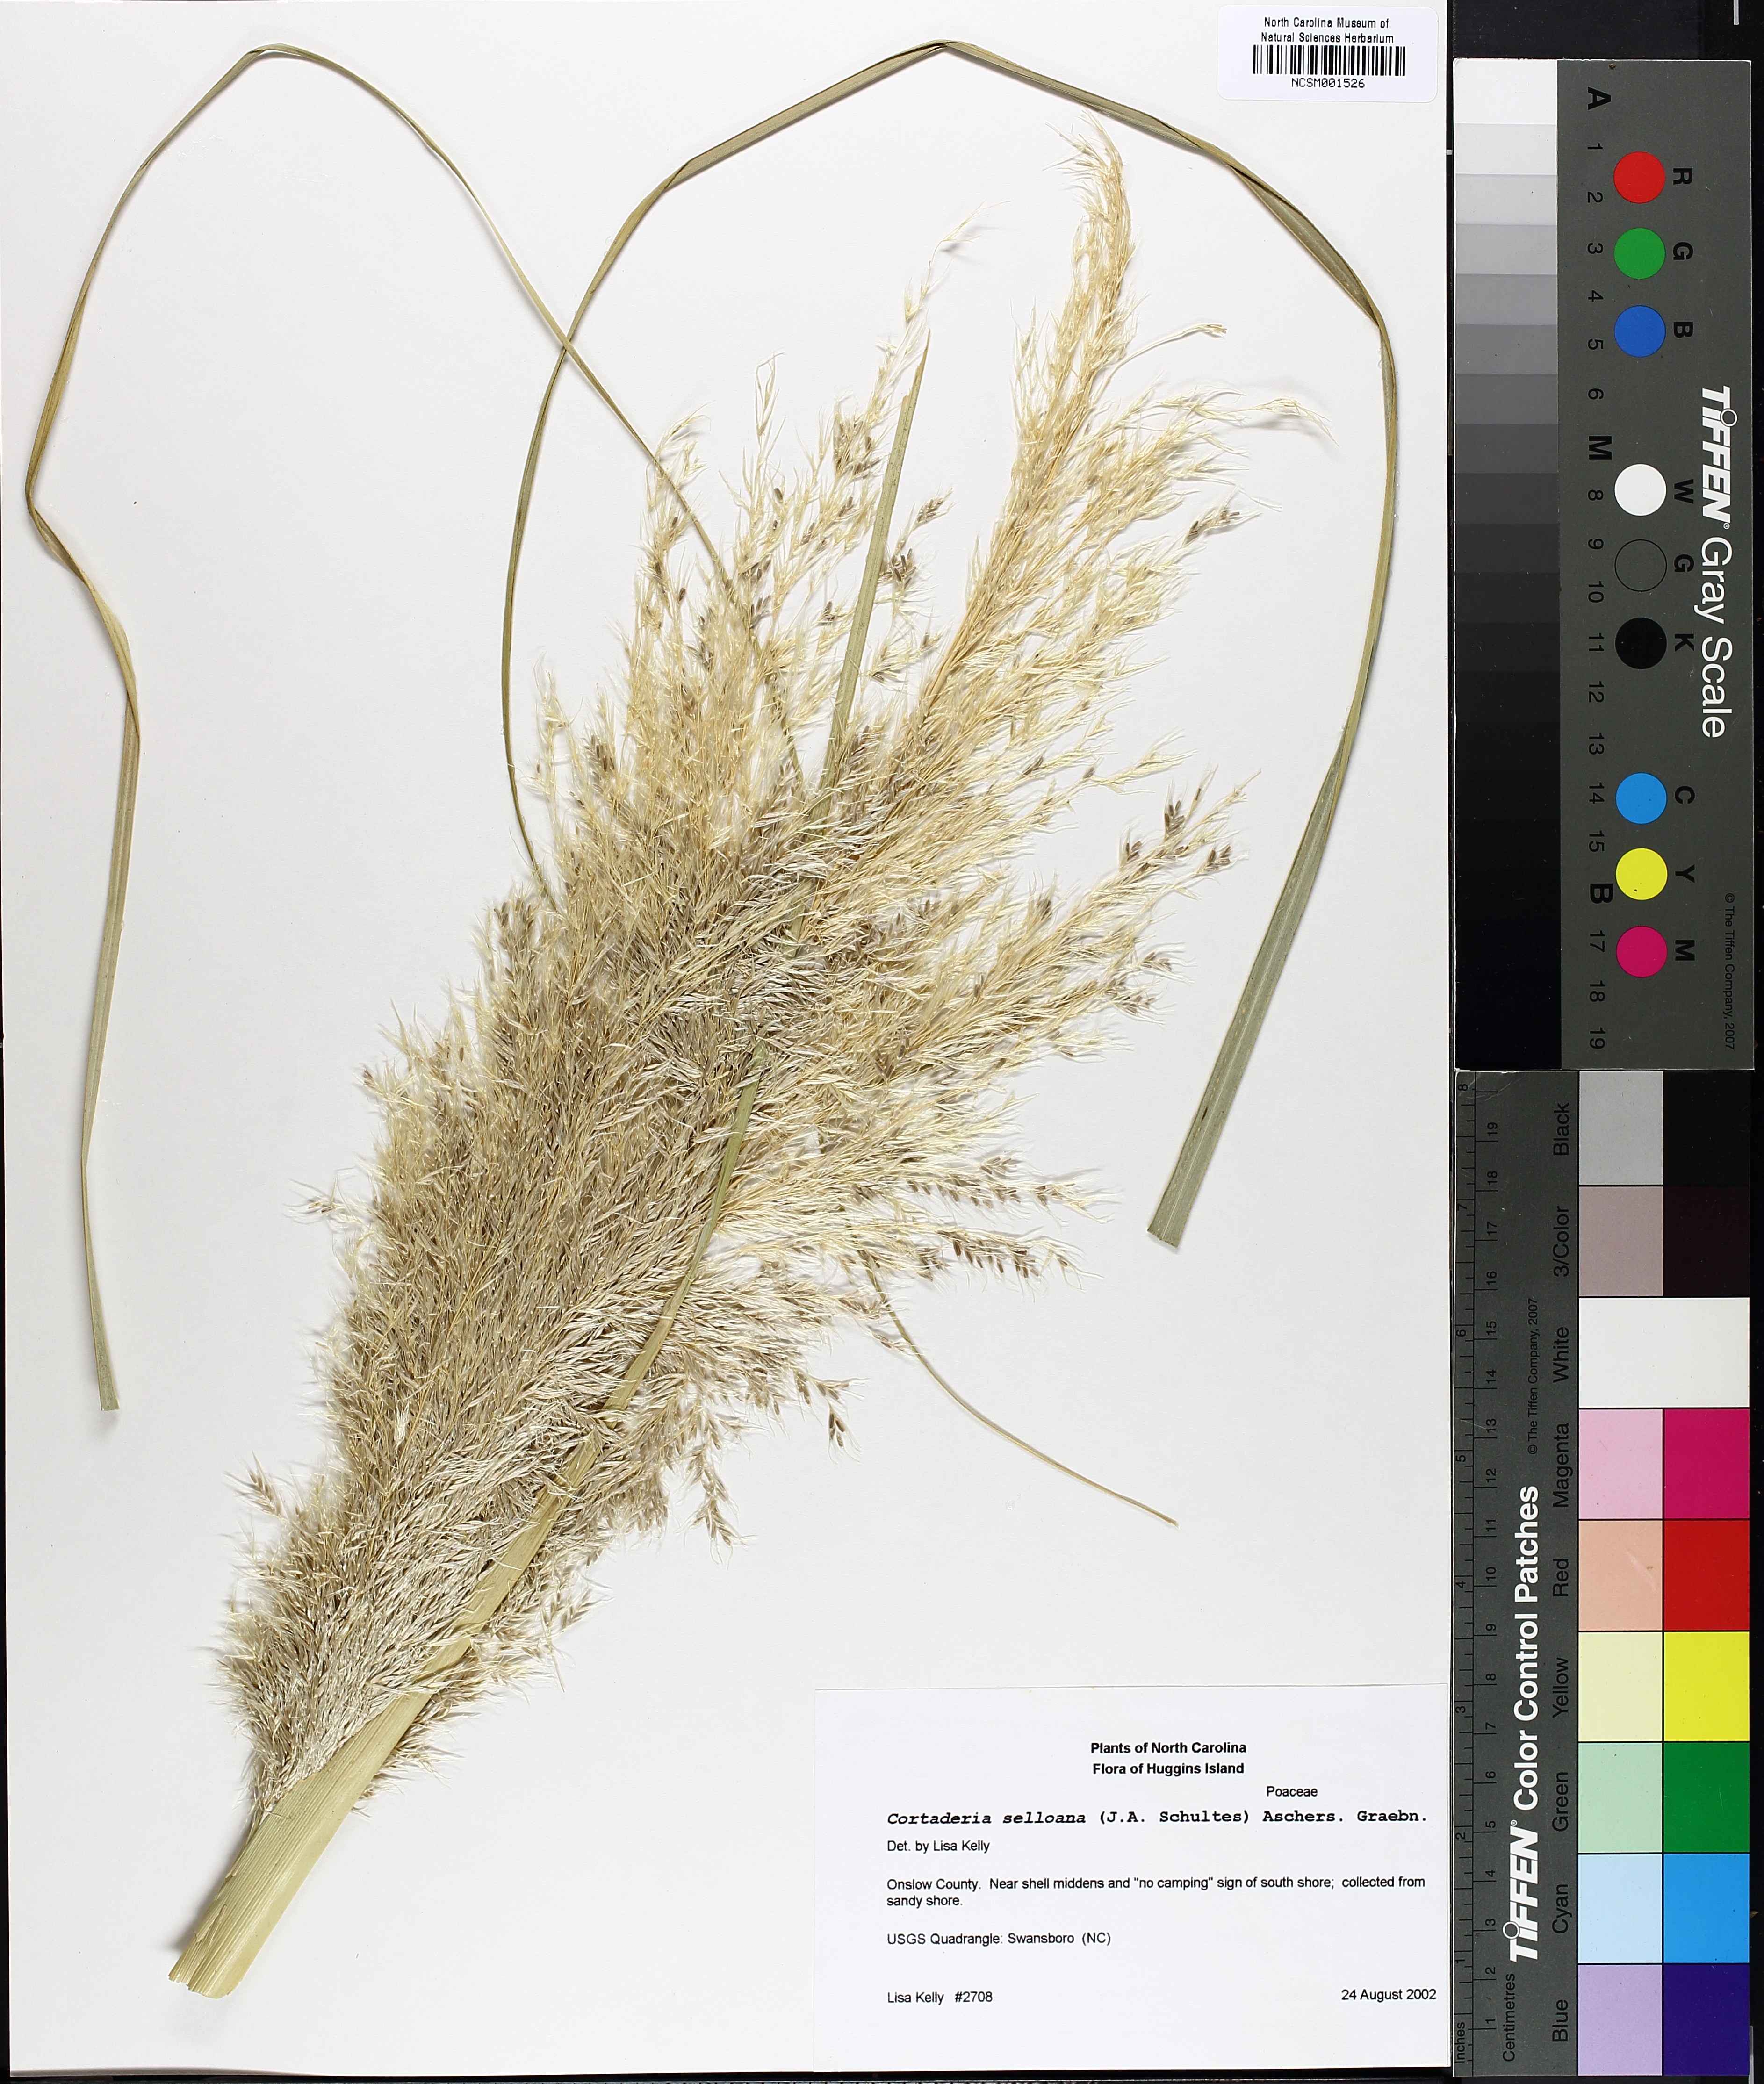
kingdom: Plantae
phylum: Tracheophyta
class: Liliopsida
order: Poales
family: Poaceae
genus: Cortaderia
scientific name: Cortaderia selloana
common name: Uruguayan pampas grass
